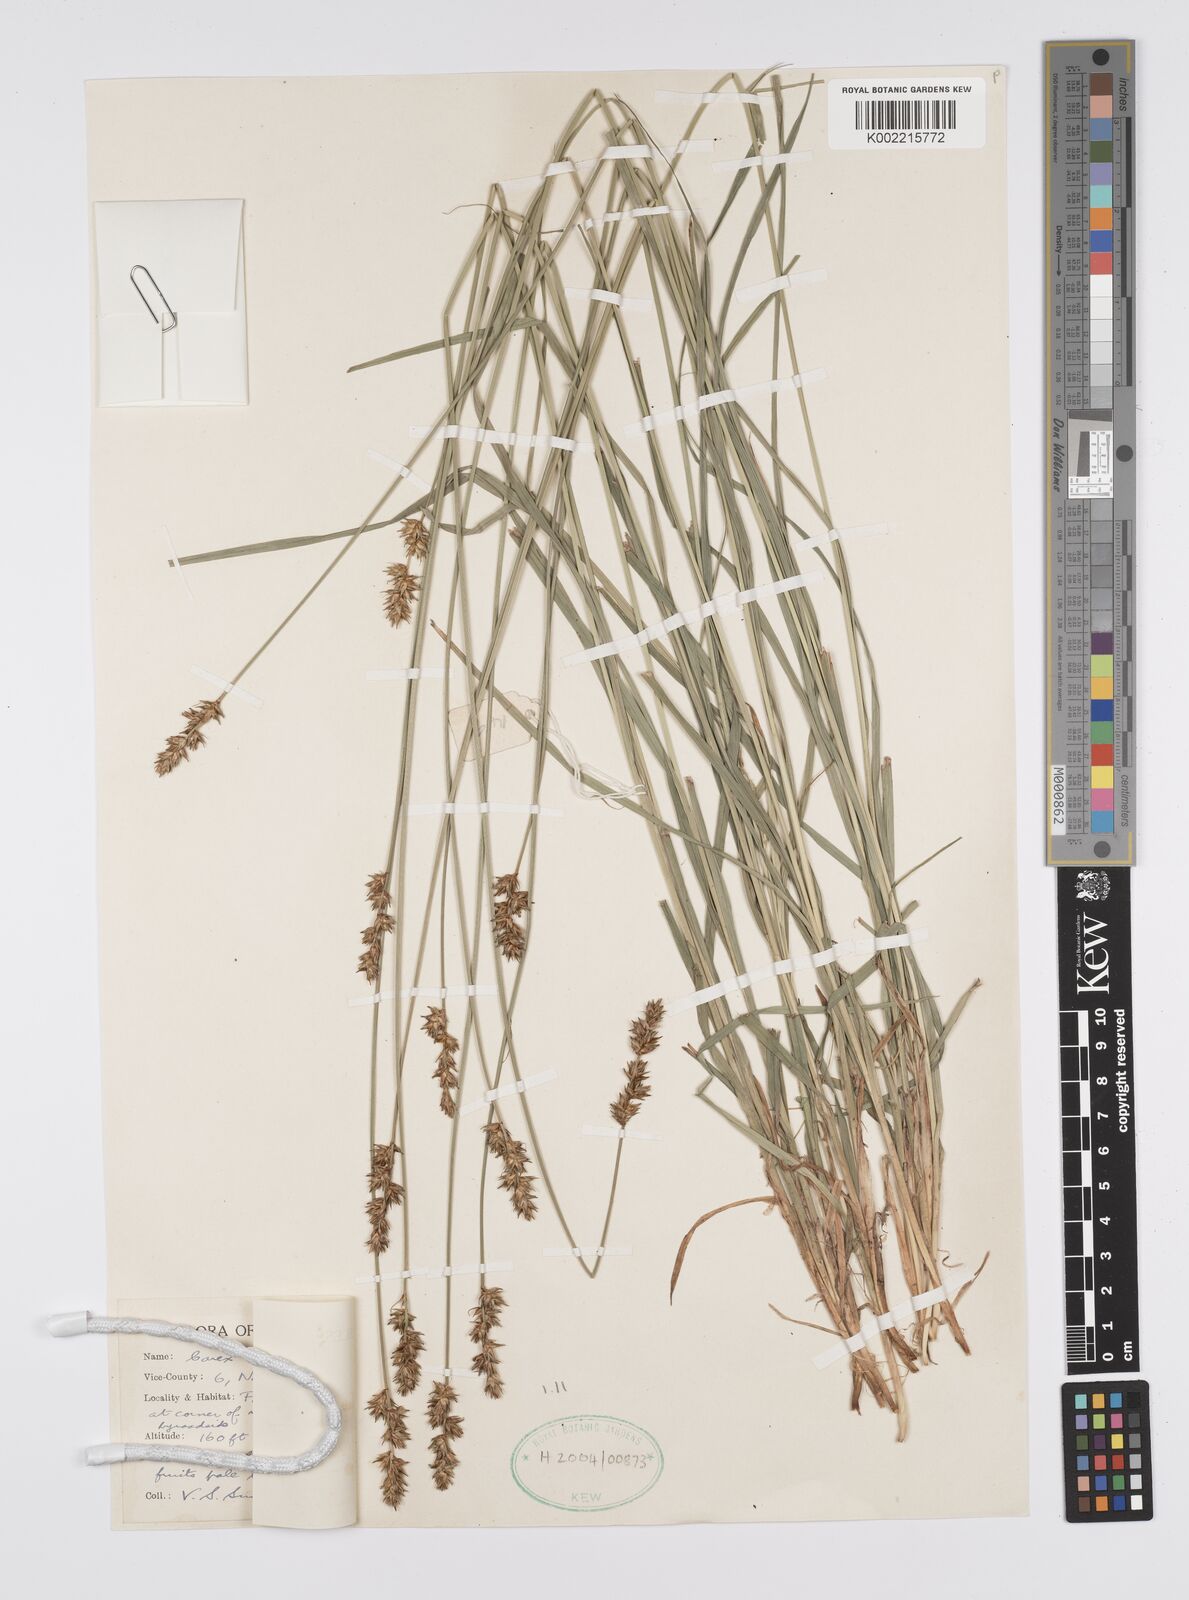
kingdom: Plantae
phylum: Tracheophyta
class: Liliopsida
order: Poales
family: Cyperaceae
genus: Carex
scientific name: Carex
